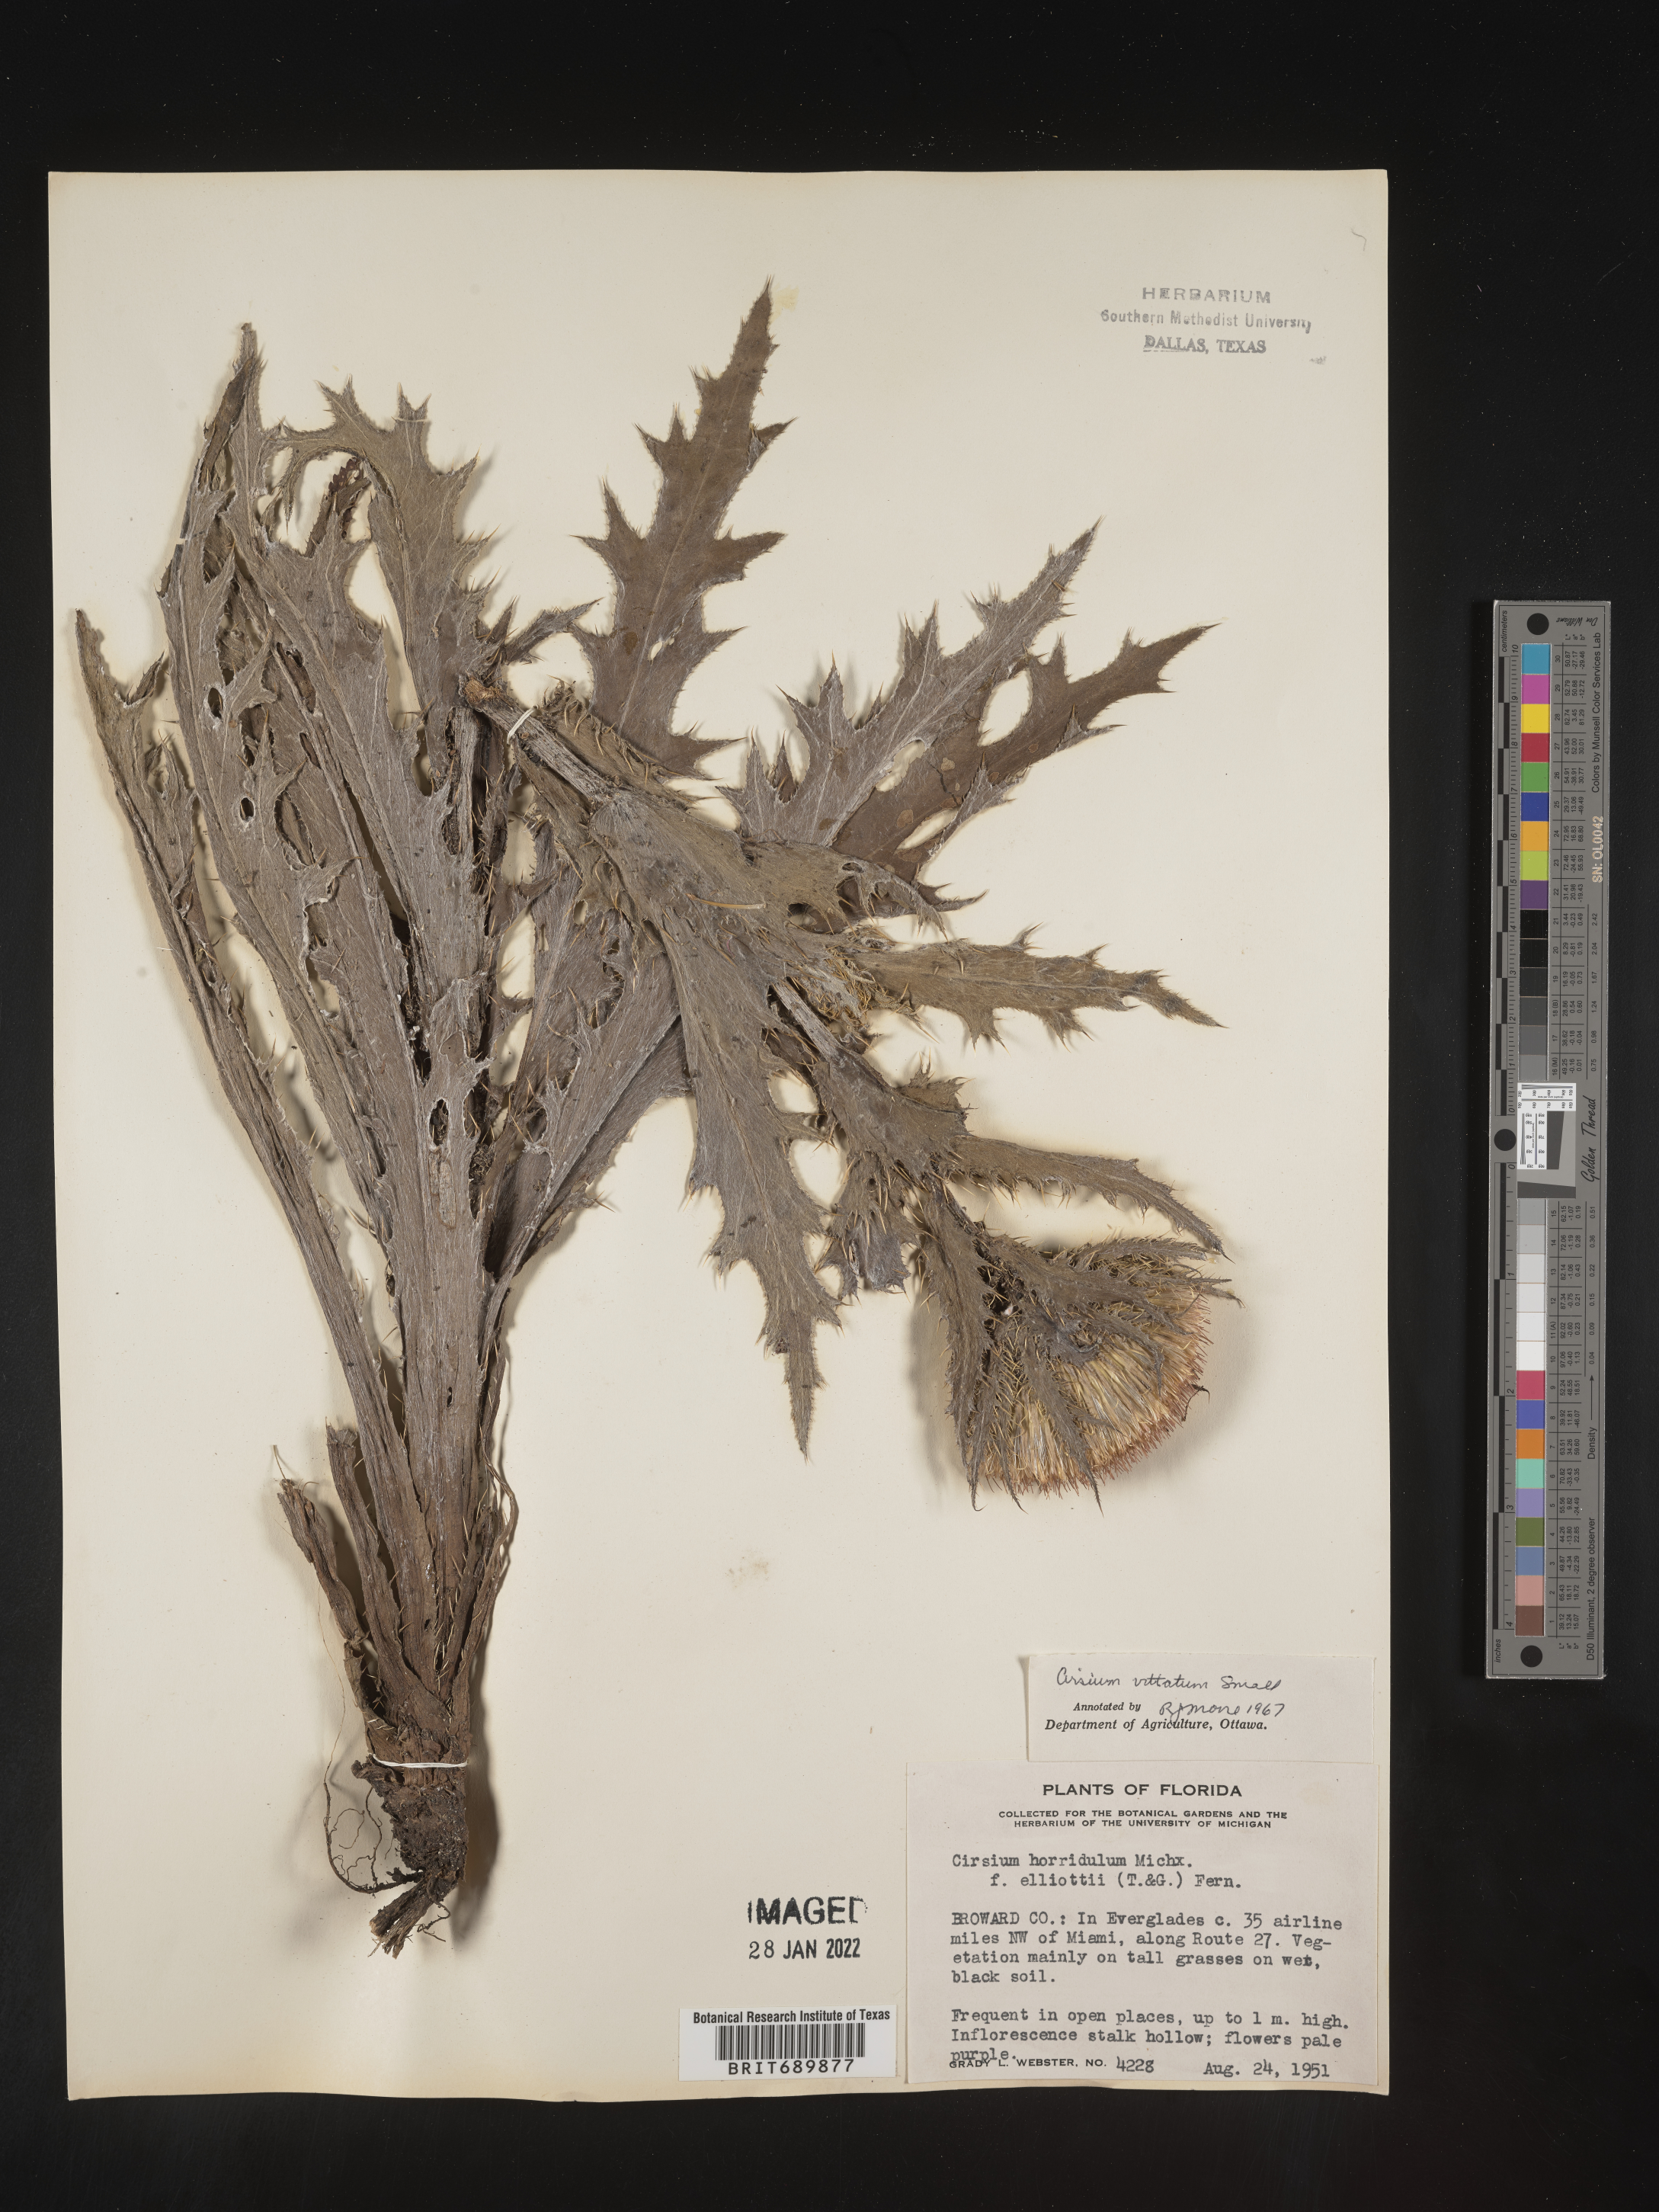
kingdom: Plantae
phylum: Tracheophyta
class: Magnoliopsida
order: Asterales
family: Asteraceae
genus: Cirsium
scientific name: Cirsium
